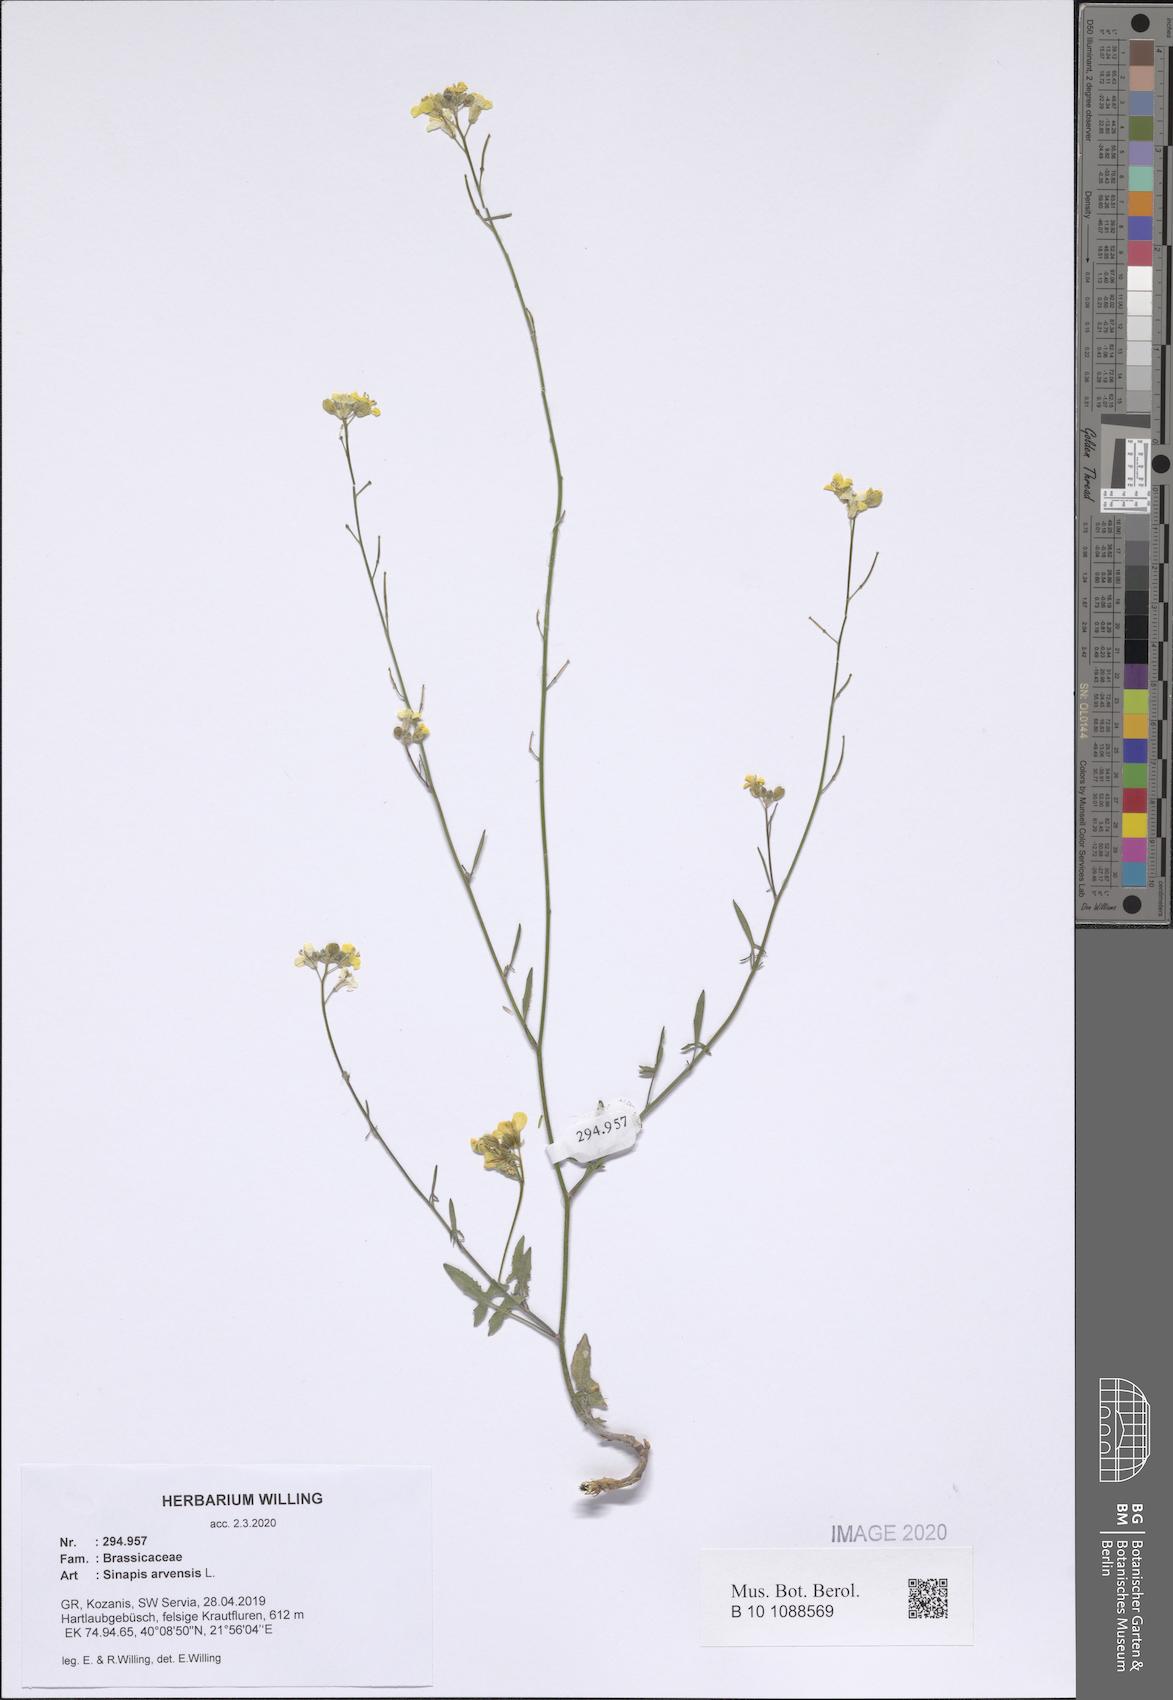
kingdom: Plantae
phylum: Tracheophyta
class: Magnoliopsida
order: Brassicales
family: Brassicaceae
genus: Sinapis
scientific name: Sinapis arvensis
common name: Charlock
